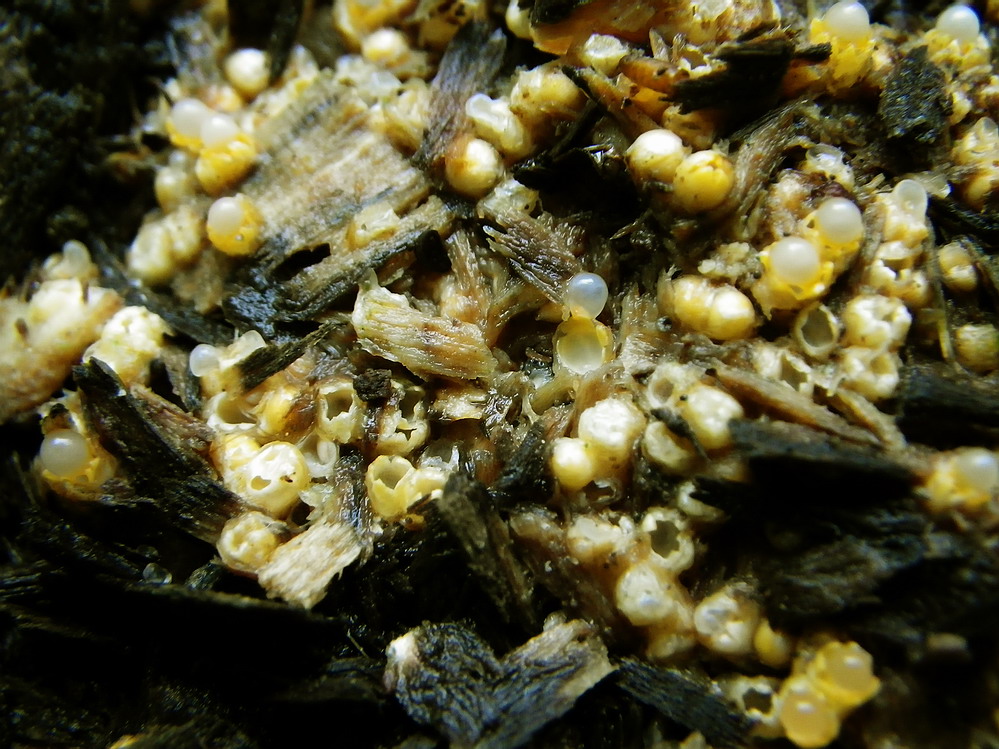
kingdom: Fungi
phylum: Basidiomycota
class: Agaricomycetes
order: Geastrales
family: Geastraceae
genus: Sphaerobolus
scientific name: Sphaerobolus stellatus
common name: bombekaster
